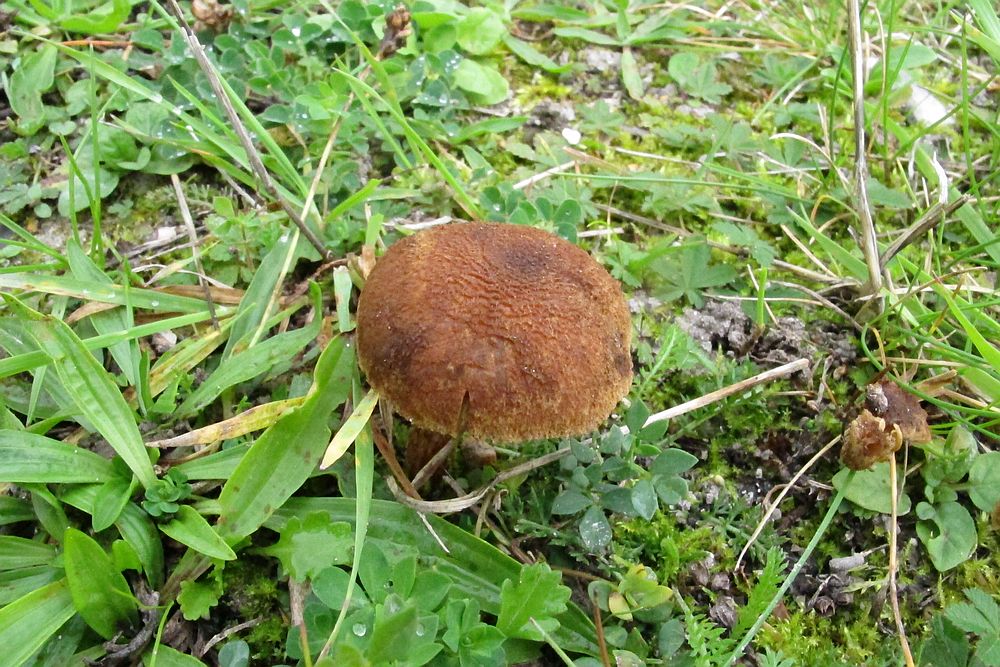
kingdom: Fungi
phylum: Basidiomycota
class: Agaricomycetes
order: Agaricales
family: Inocybaceae
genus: Inocybe
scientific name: Inocybe
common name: trævlhat
